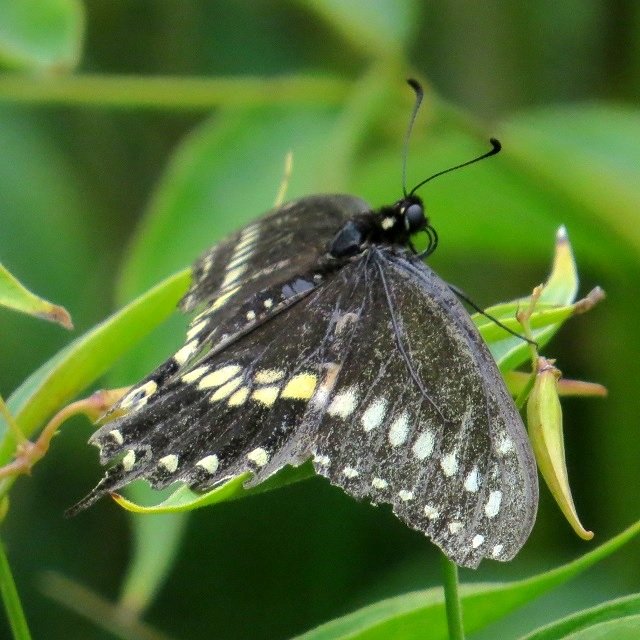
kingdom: Animalia
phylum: Arthropoda
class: Insecta
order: Lepidoptera
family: Papilionidae
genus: Papilio
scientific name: Papilio polyxenes
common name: Black Swallowtail
